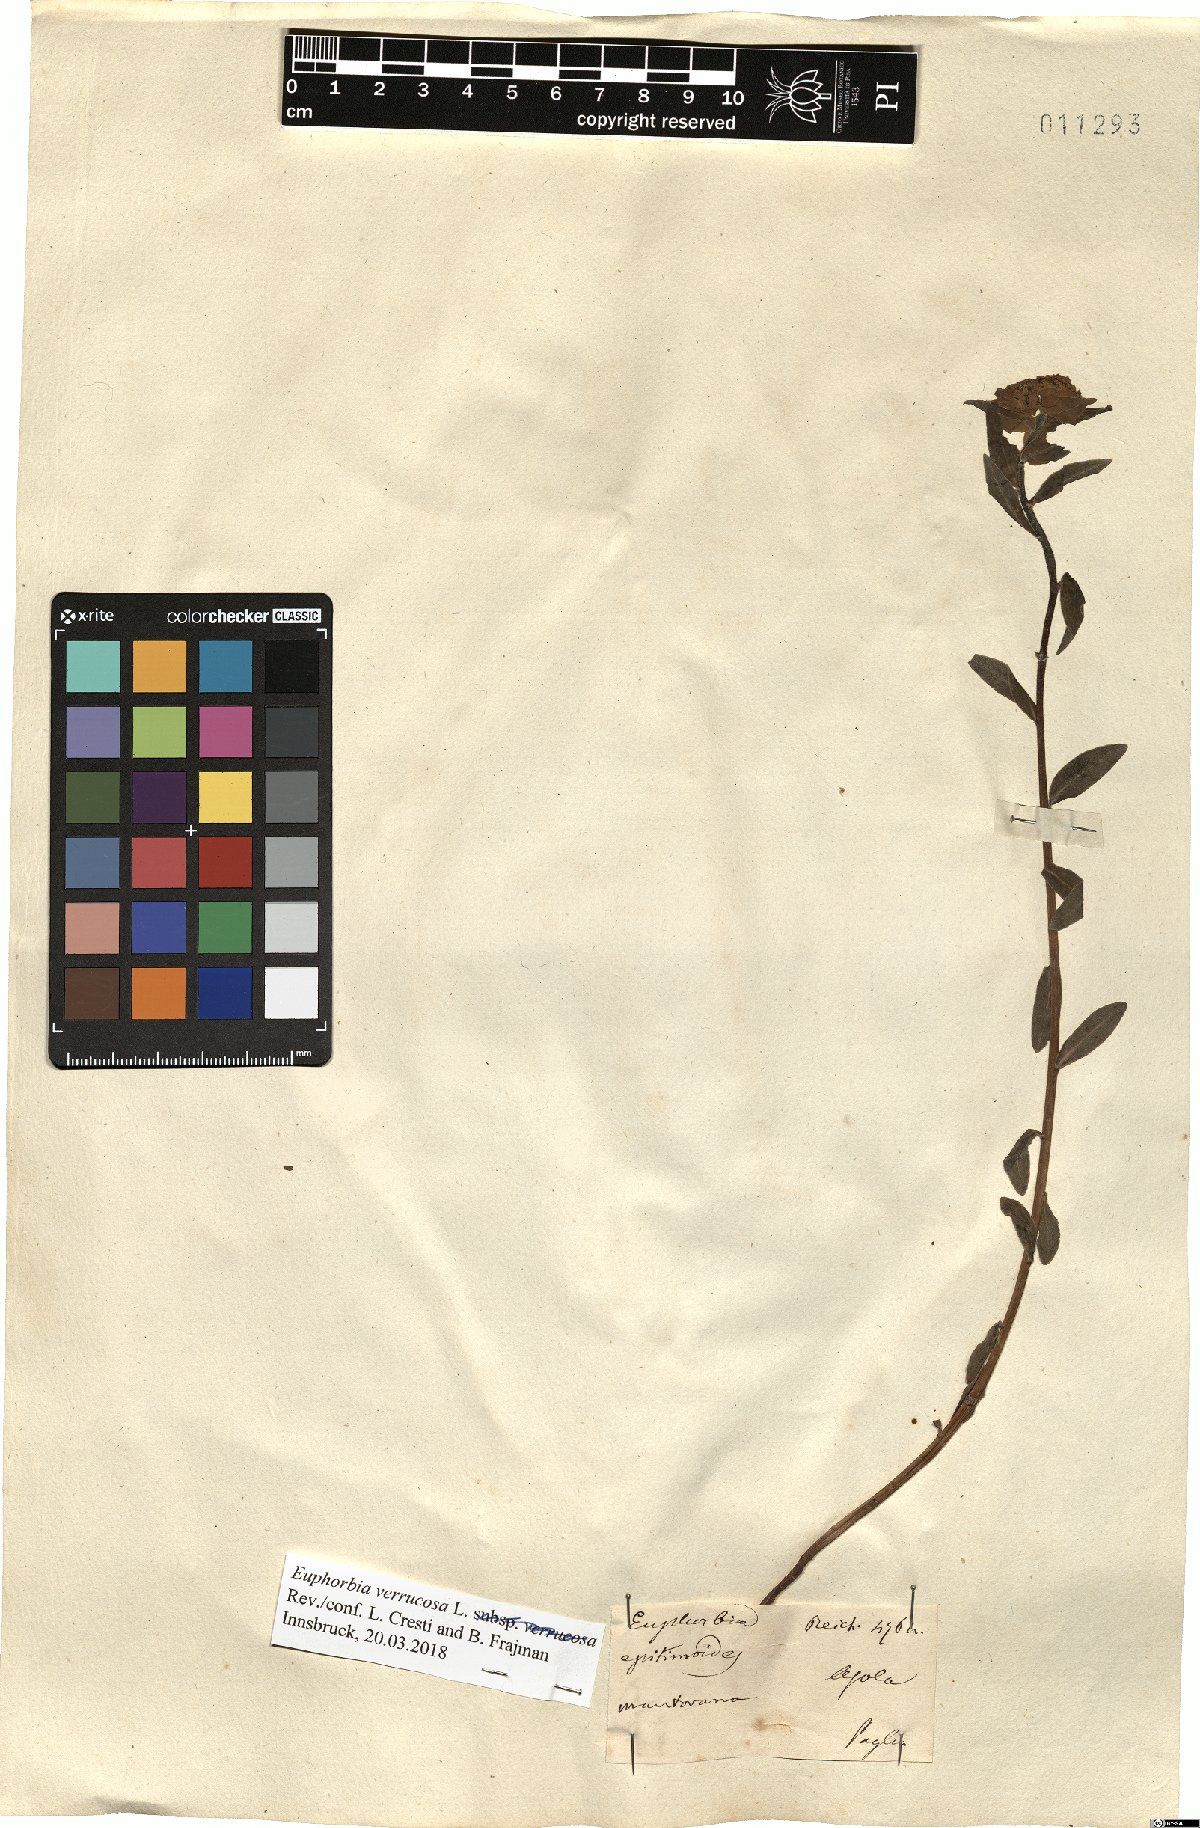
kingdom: Plantae
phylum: Tracheophyta
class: Magnoliopsida
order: Malpighiales
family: Euphorbiaceae
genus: Euphorbia
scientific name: Euphorbia verrucosa
